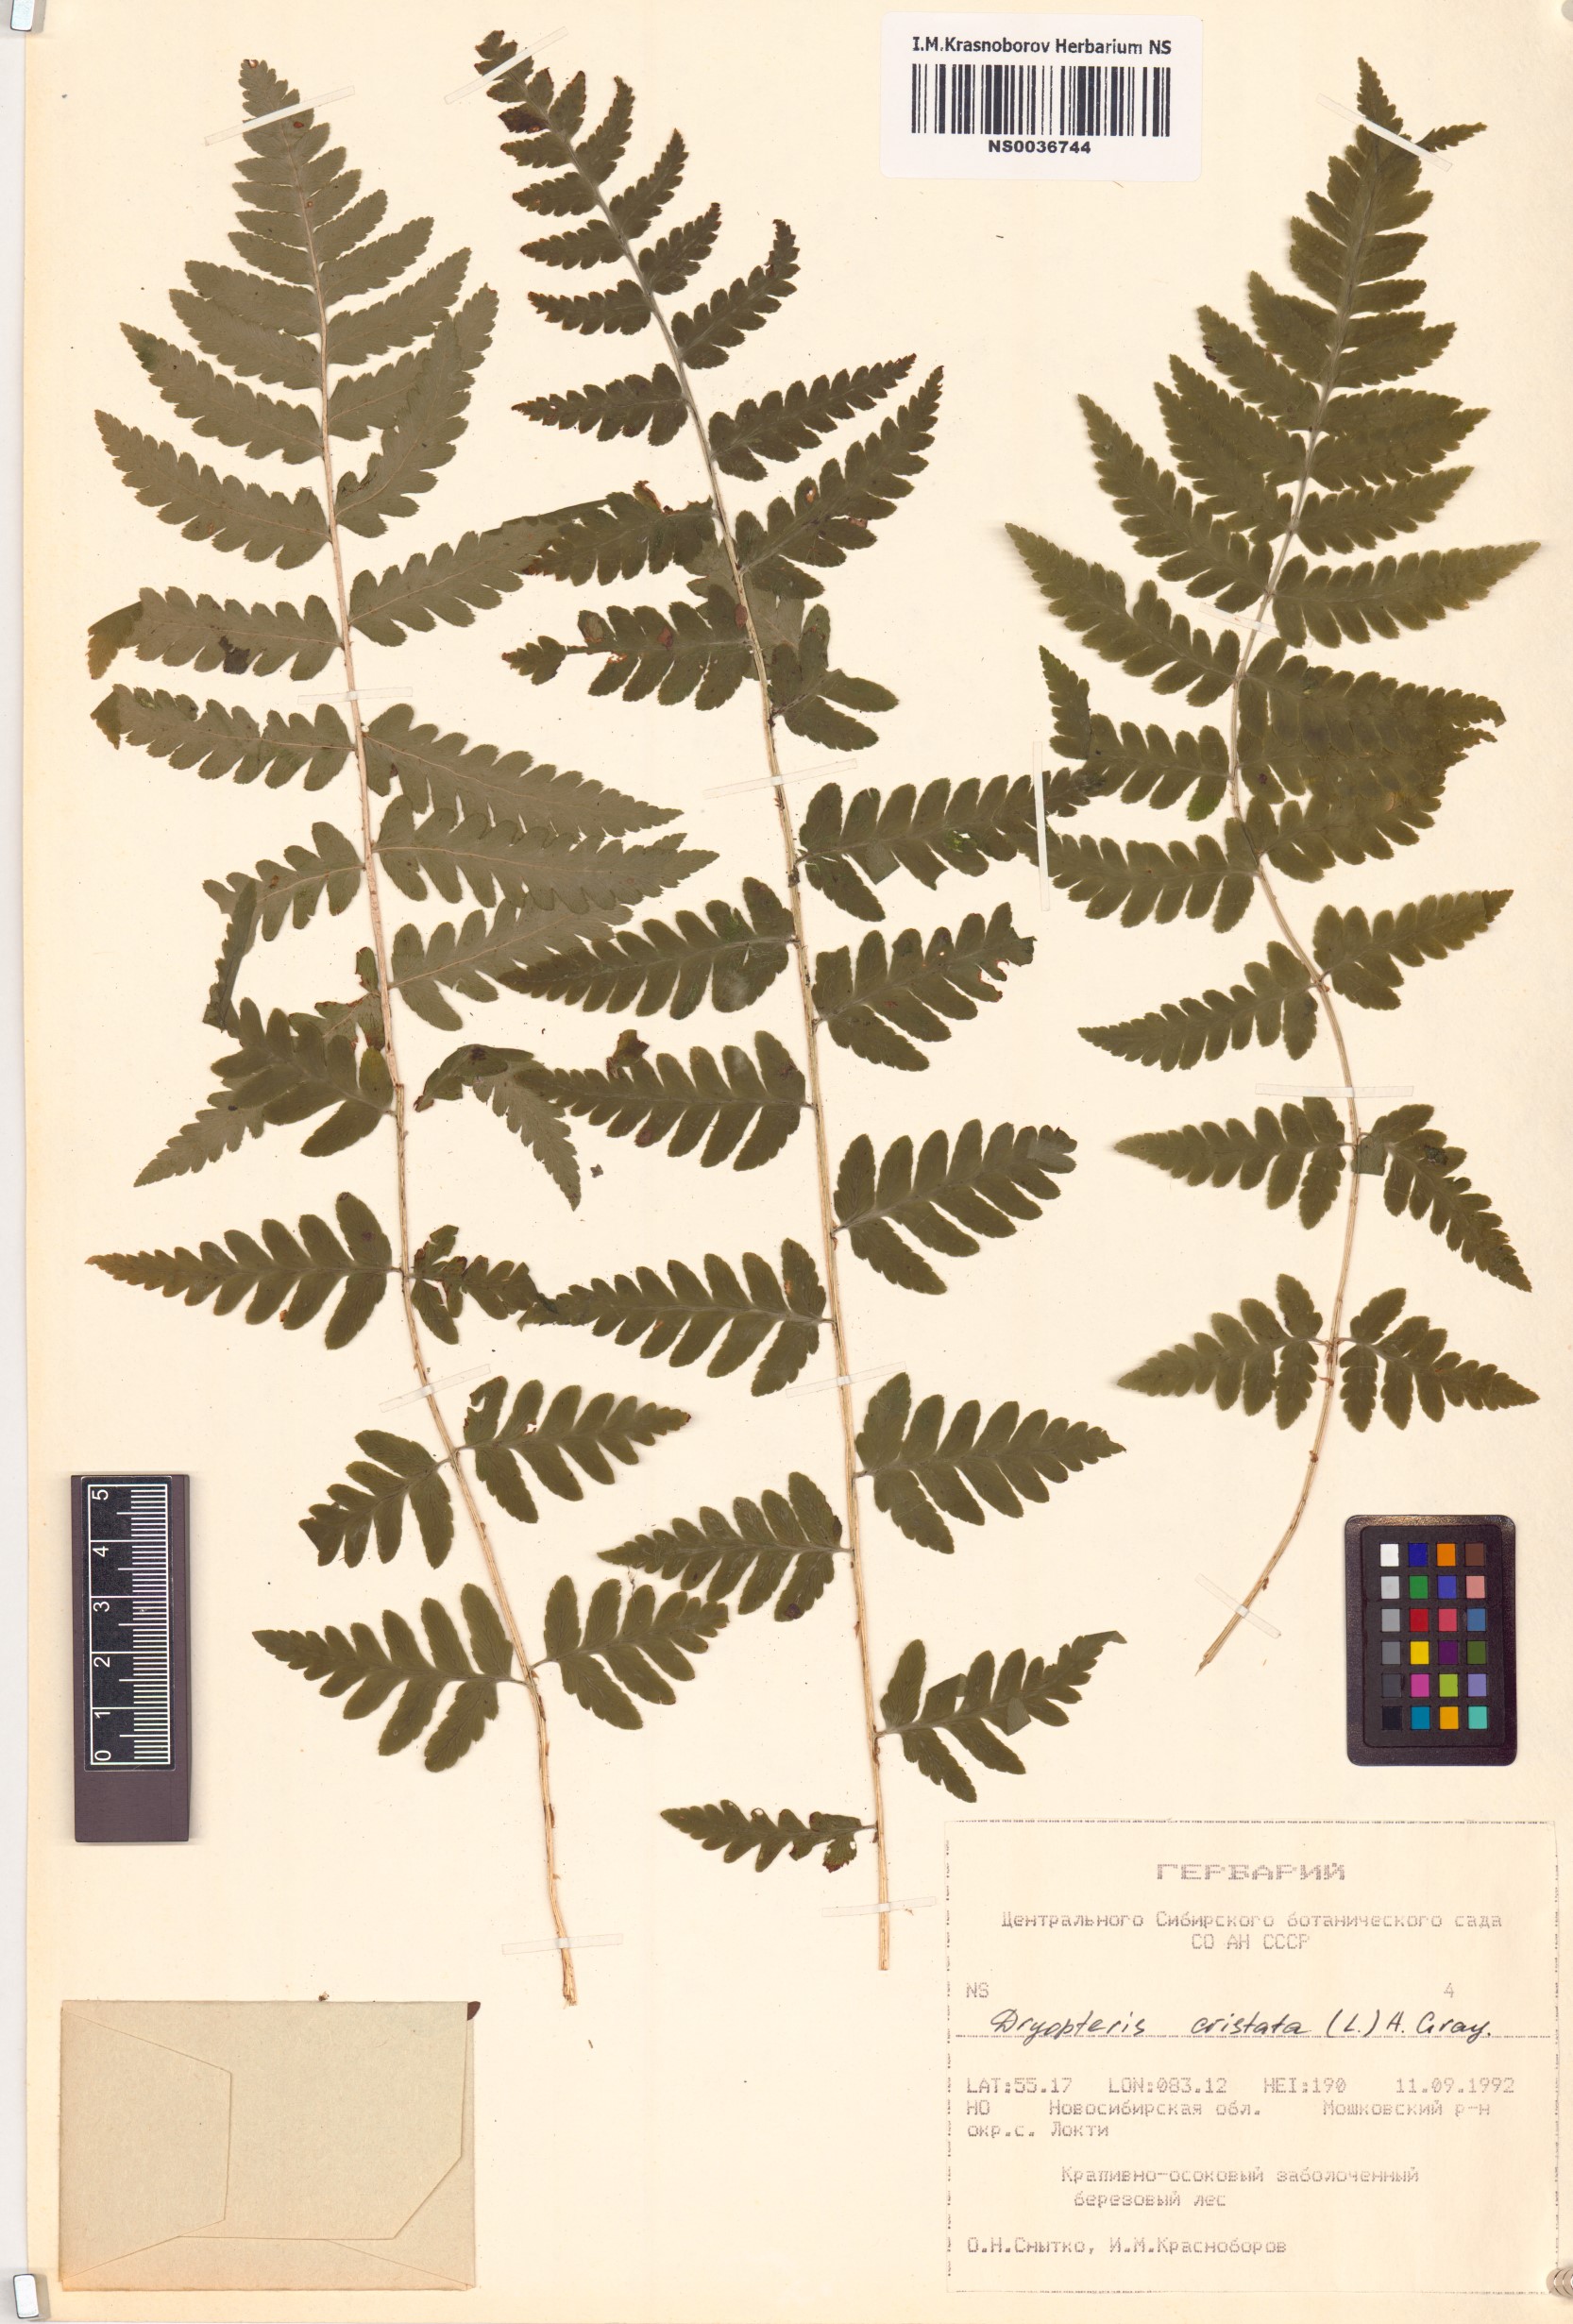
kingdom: Plantae
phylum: Tracheophyta
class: Polypodiopsida
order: Polypodiales
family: Dryopteridaceae
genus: Dryopteris
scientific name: Dryopteris cristata
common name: Crested wood fern
